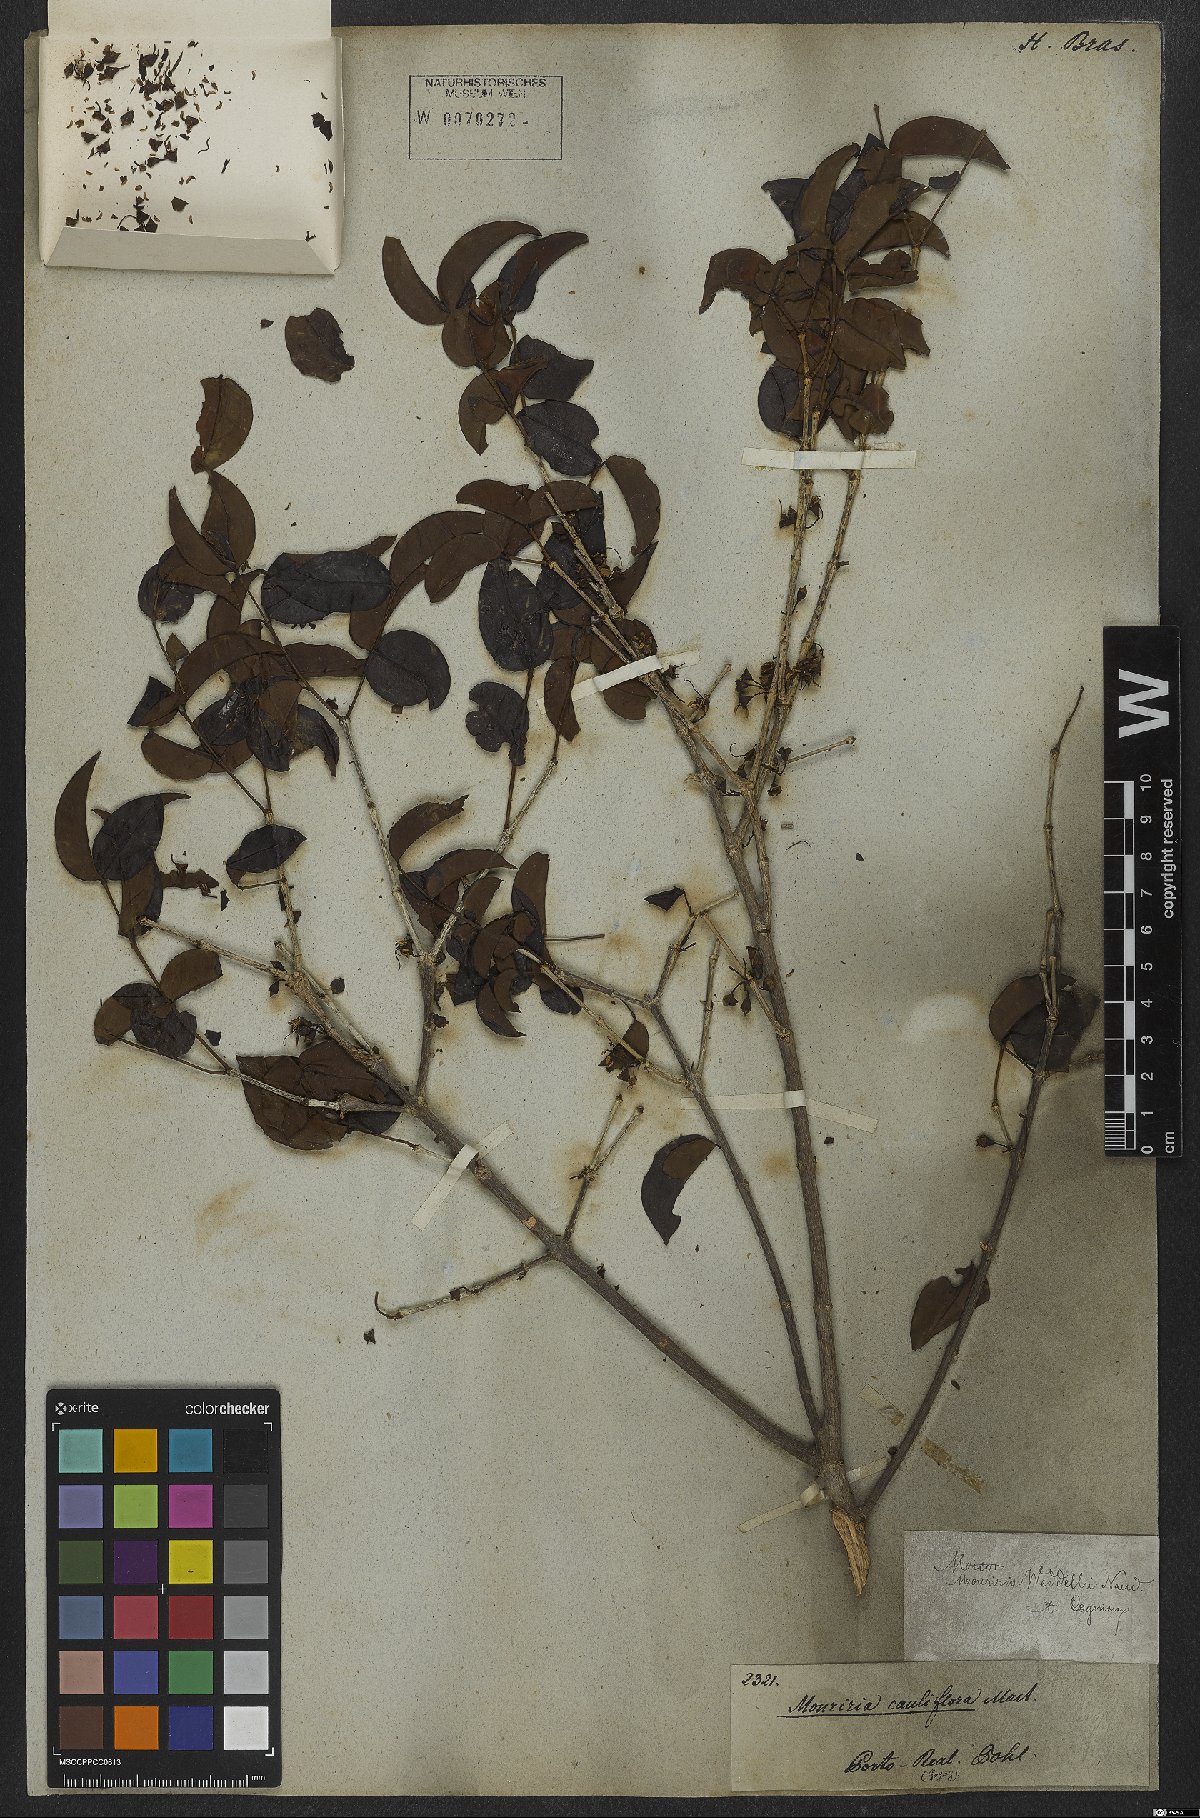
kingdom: Plantae
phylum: Tracheophyta
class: Magnoliopsida
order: Myrtales
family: Melastomataceae
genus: Mouriri
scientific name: Mouriri guianensis
